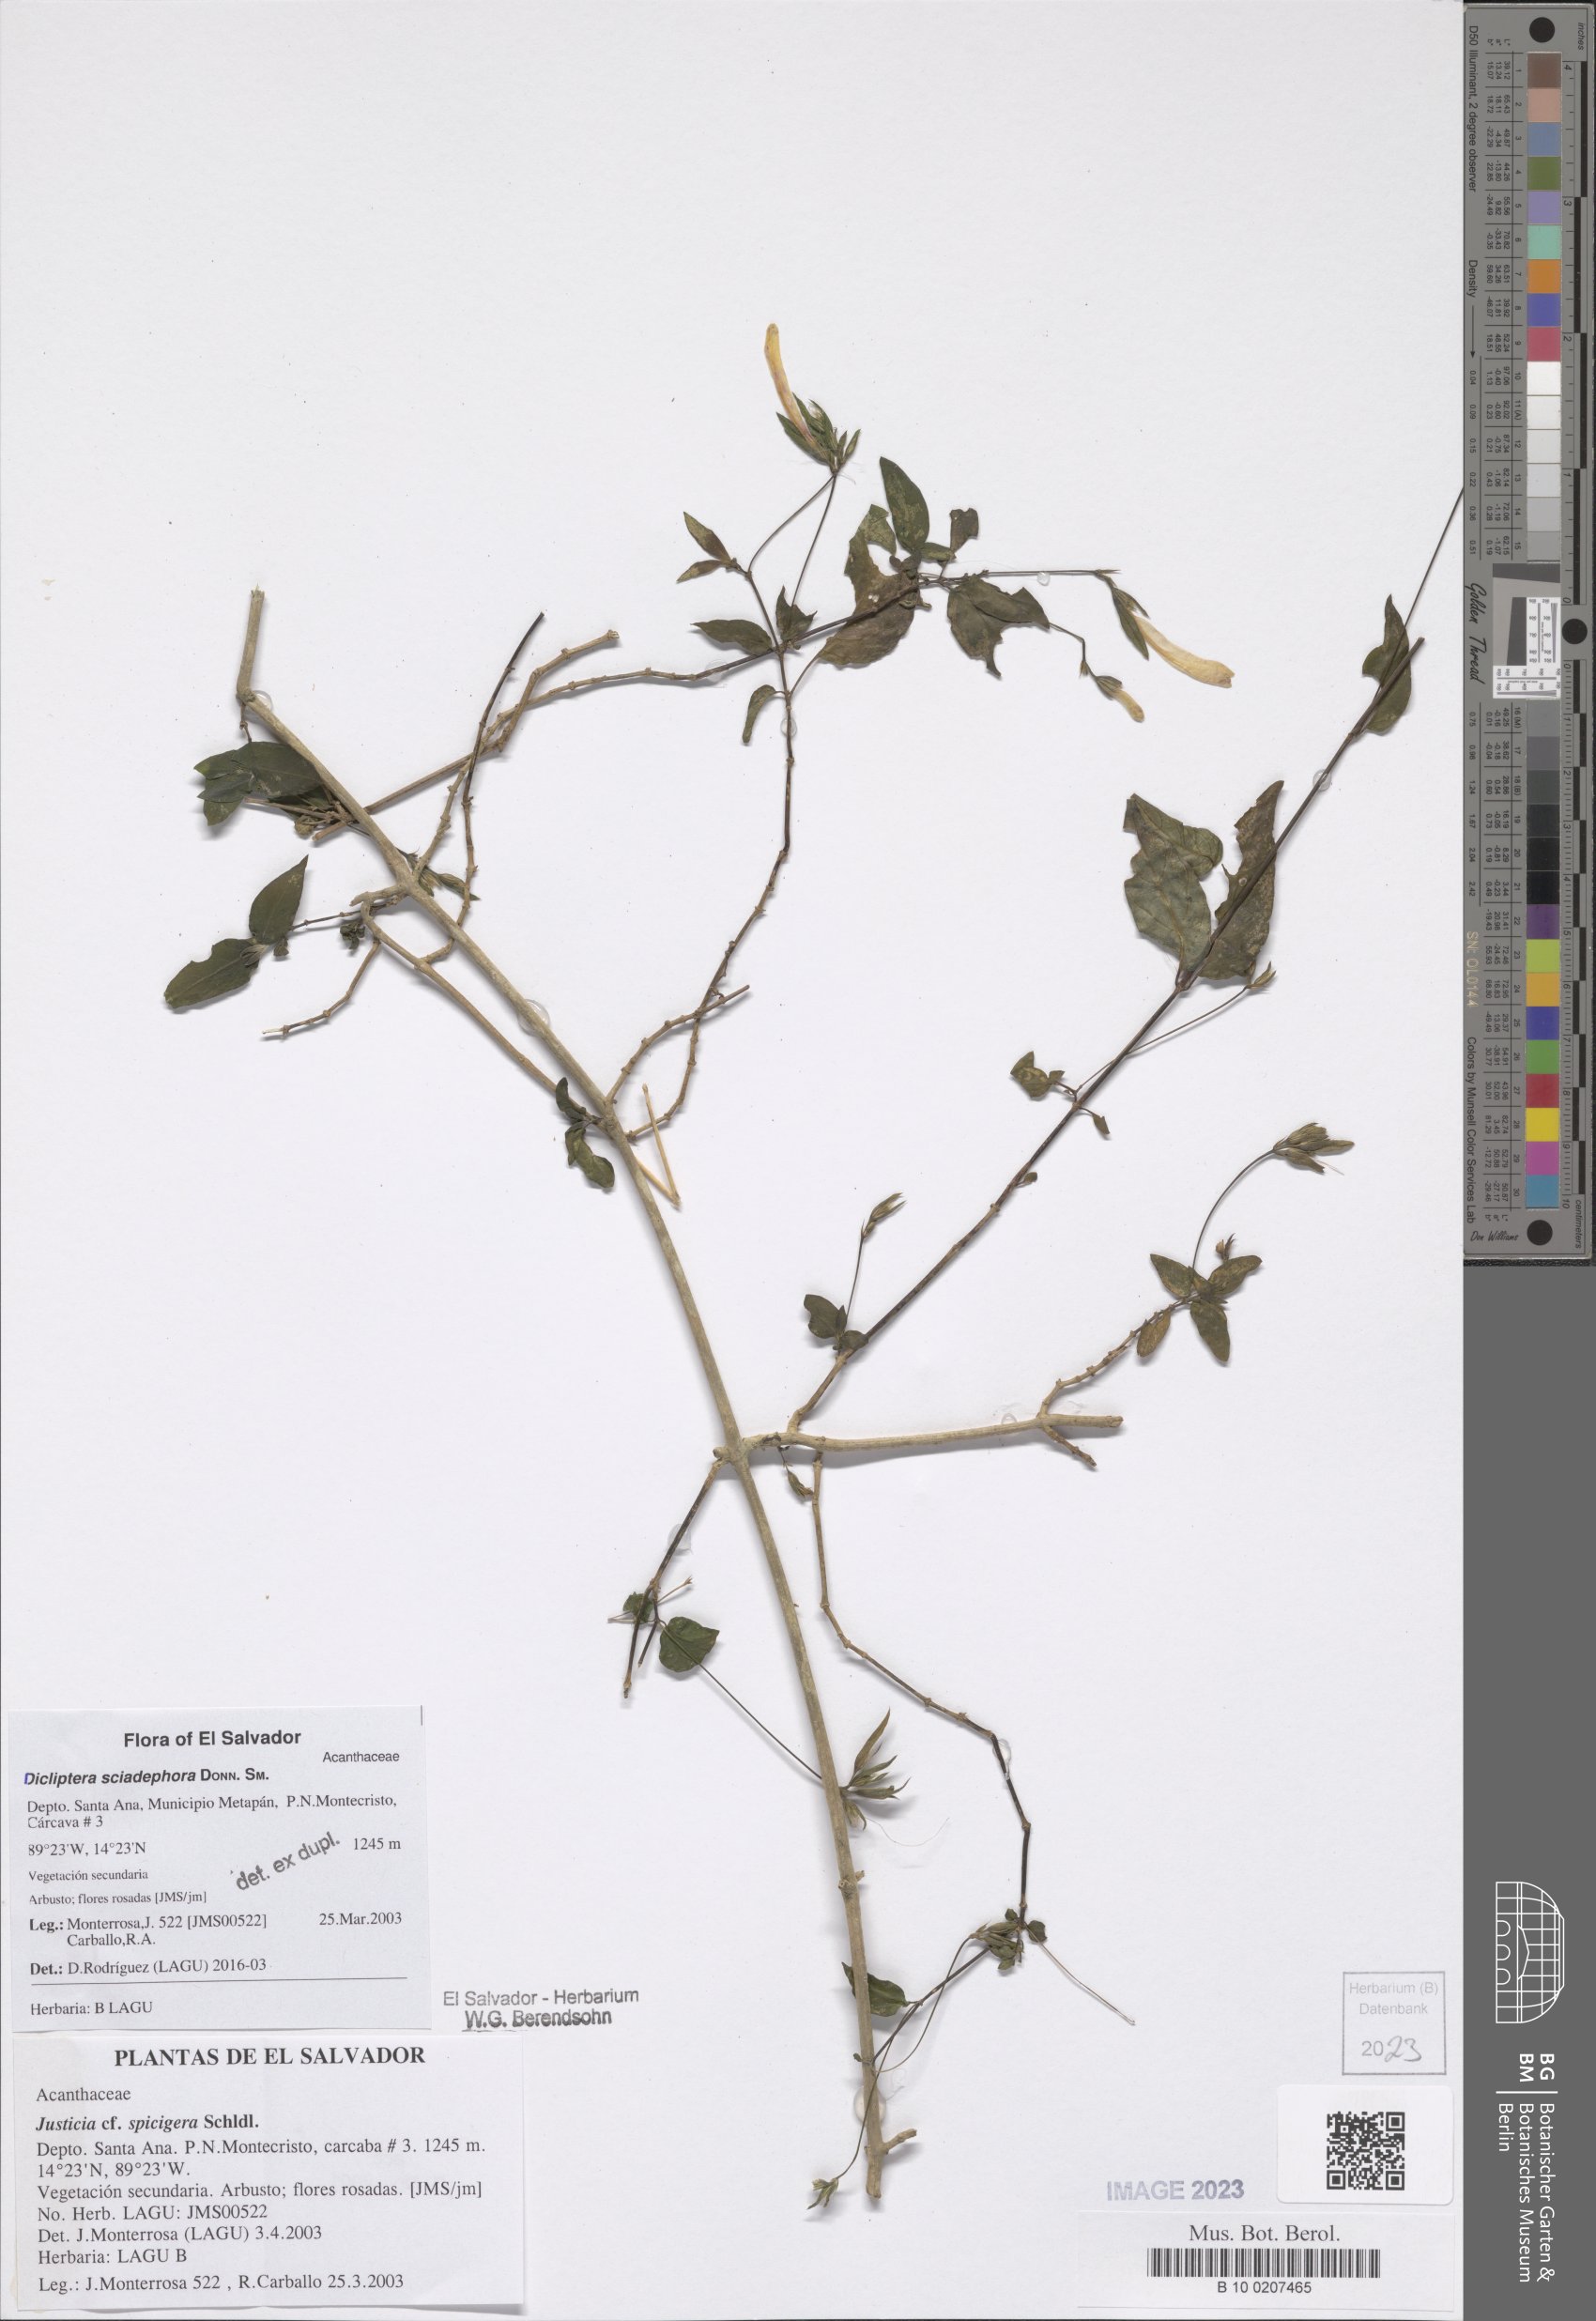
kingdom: Plantae
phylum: Tracheophyta
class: Magnoliopsida
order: Lamiales
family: Acanthaceae
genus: Dicliptera
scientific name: Dicliptera sciadephora
